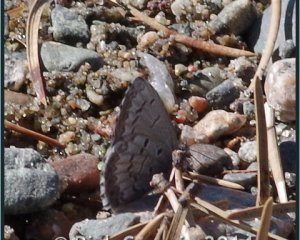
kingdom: Animalia
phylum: Arthropoda
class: Insecta
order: Lepidoptera
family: Lycaenidae
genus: Celastrina
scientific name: Celastrina lucia
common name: Northern Spring Azure
